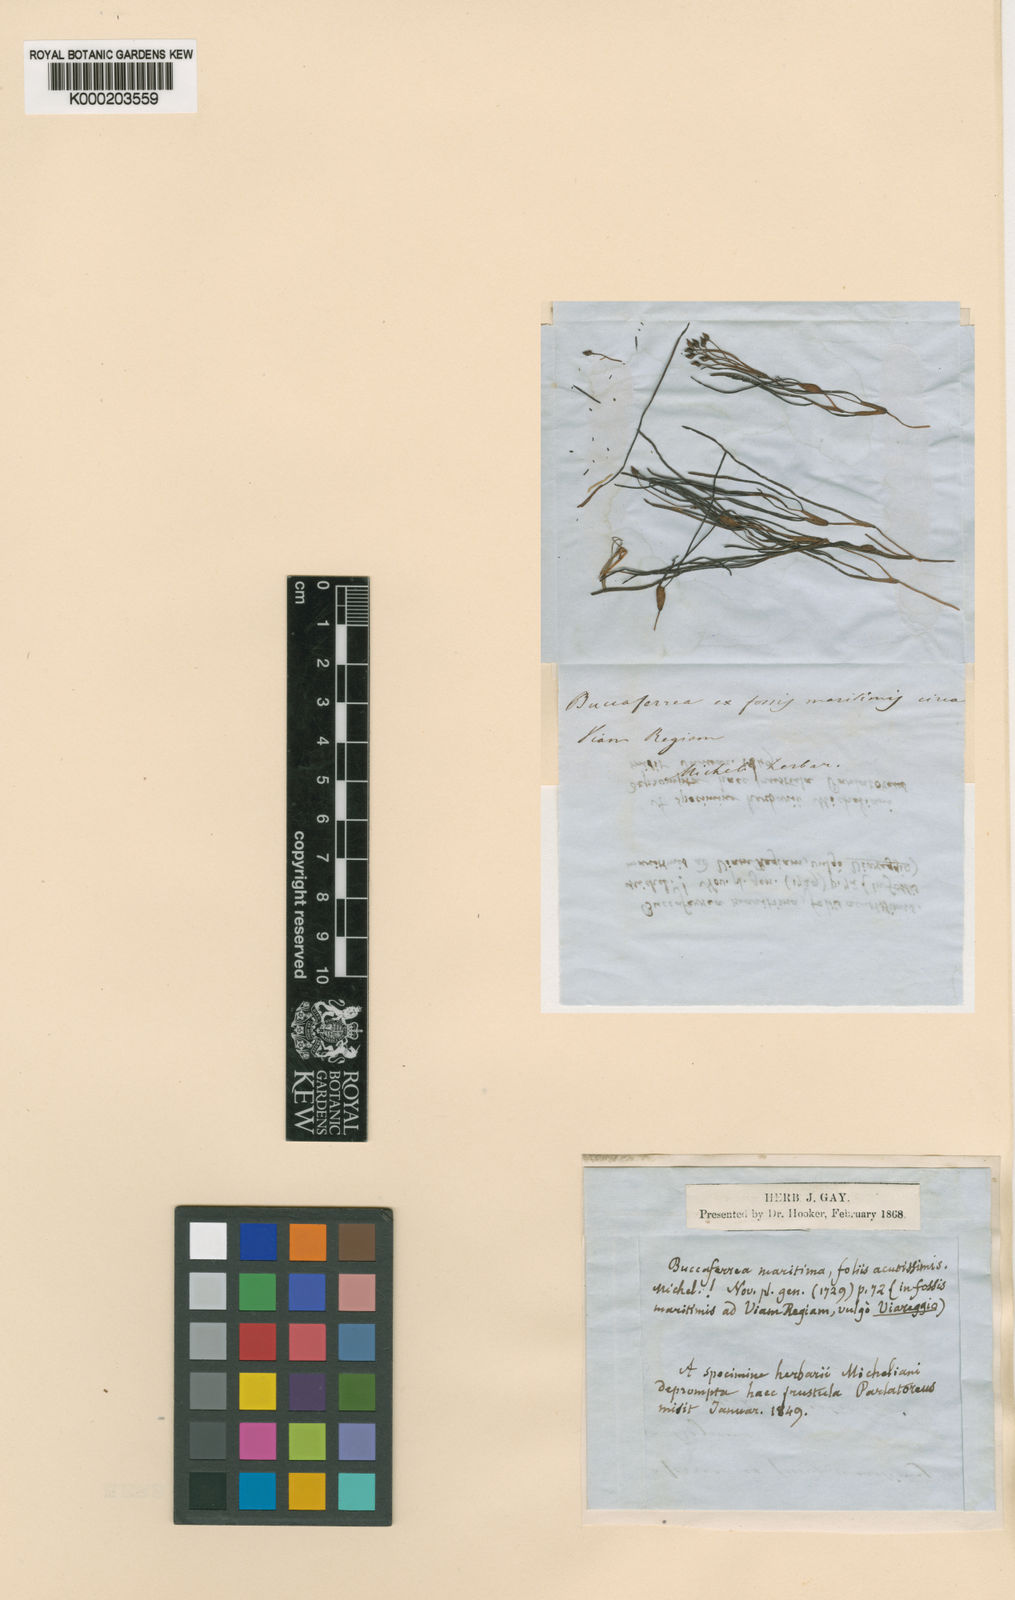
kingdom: Plantae
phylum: Tracheophyta
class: Liliopsida
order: Alismatales
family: Ruppiaceae
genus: Ruppia
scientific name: Ruppia maritima
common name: Beaked tasselweed
